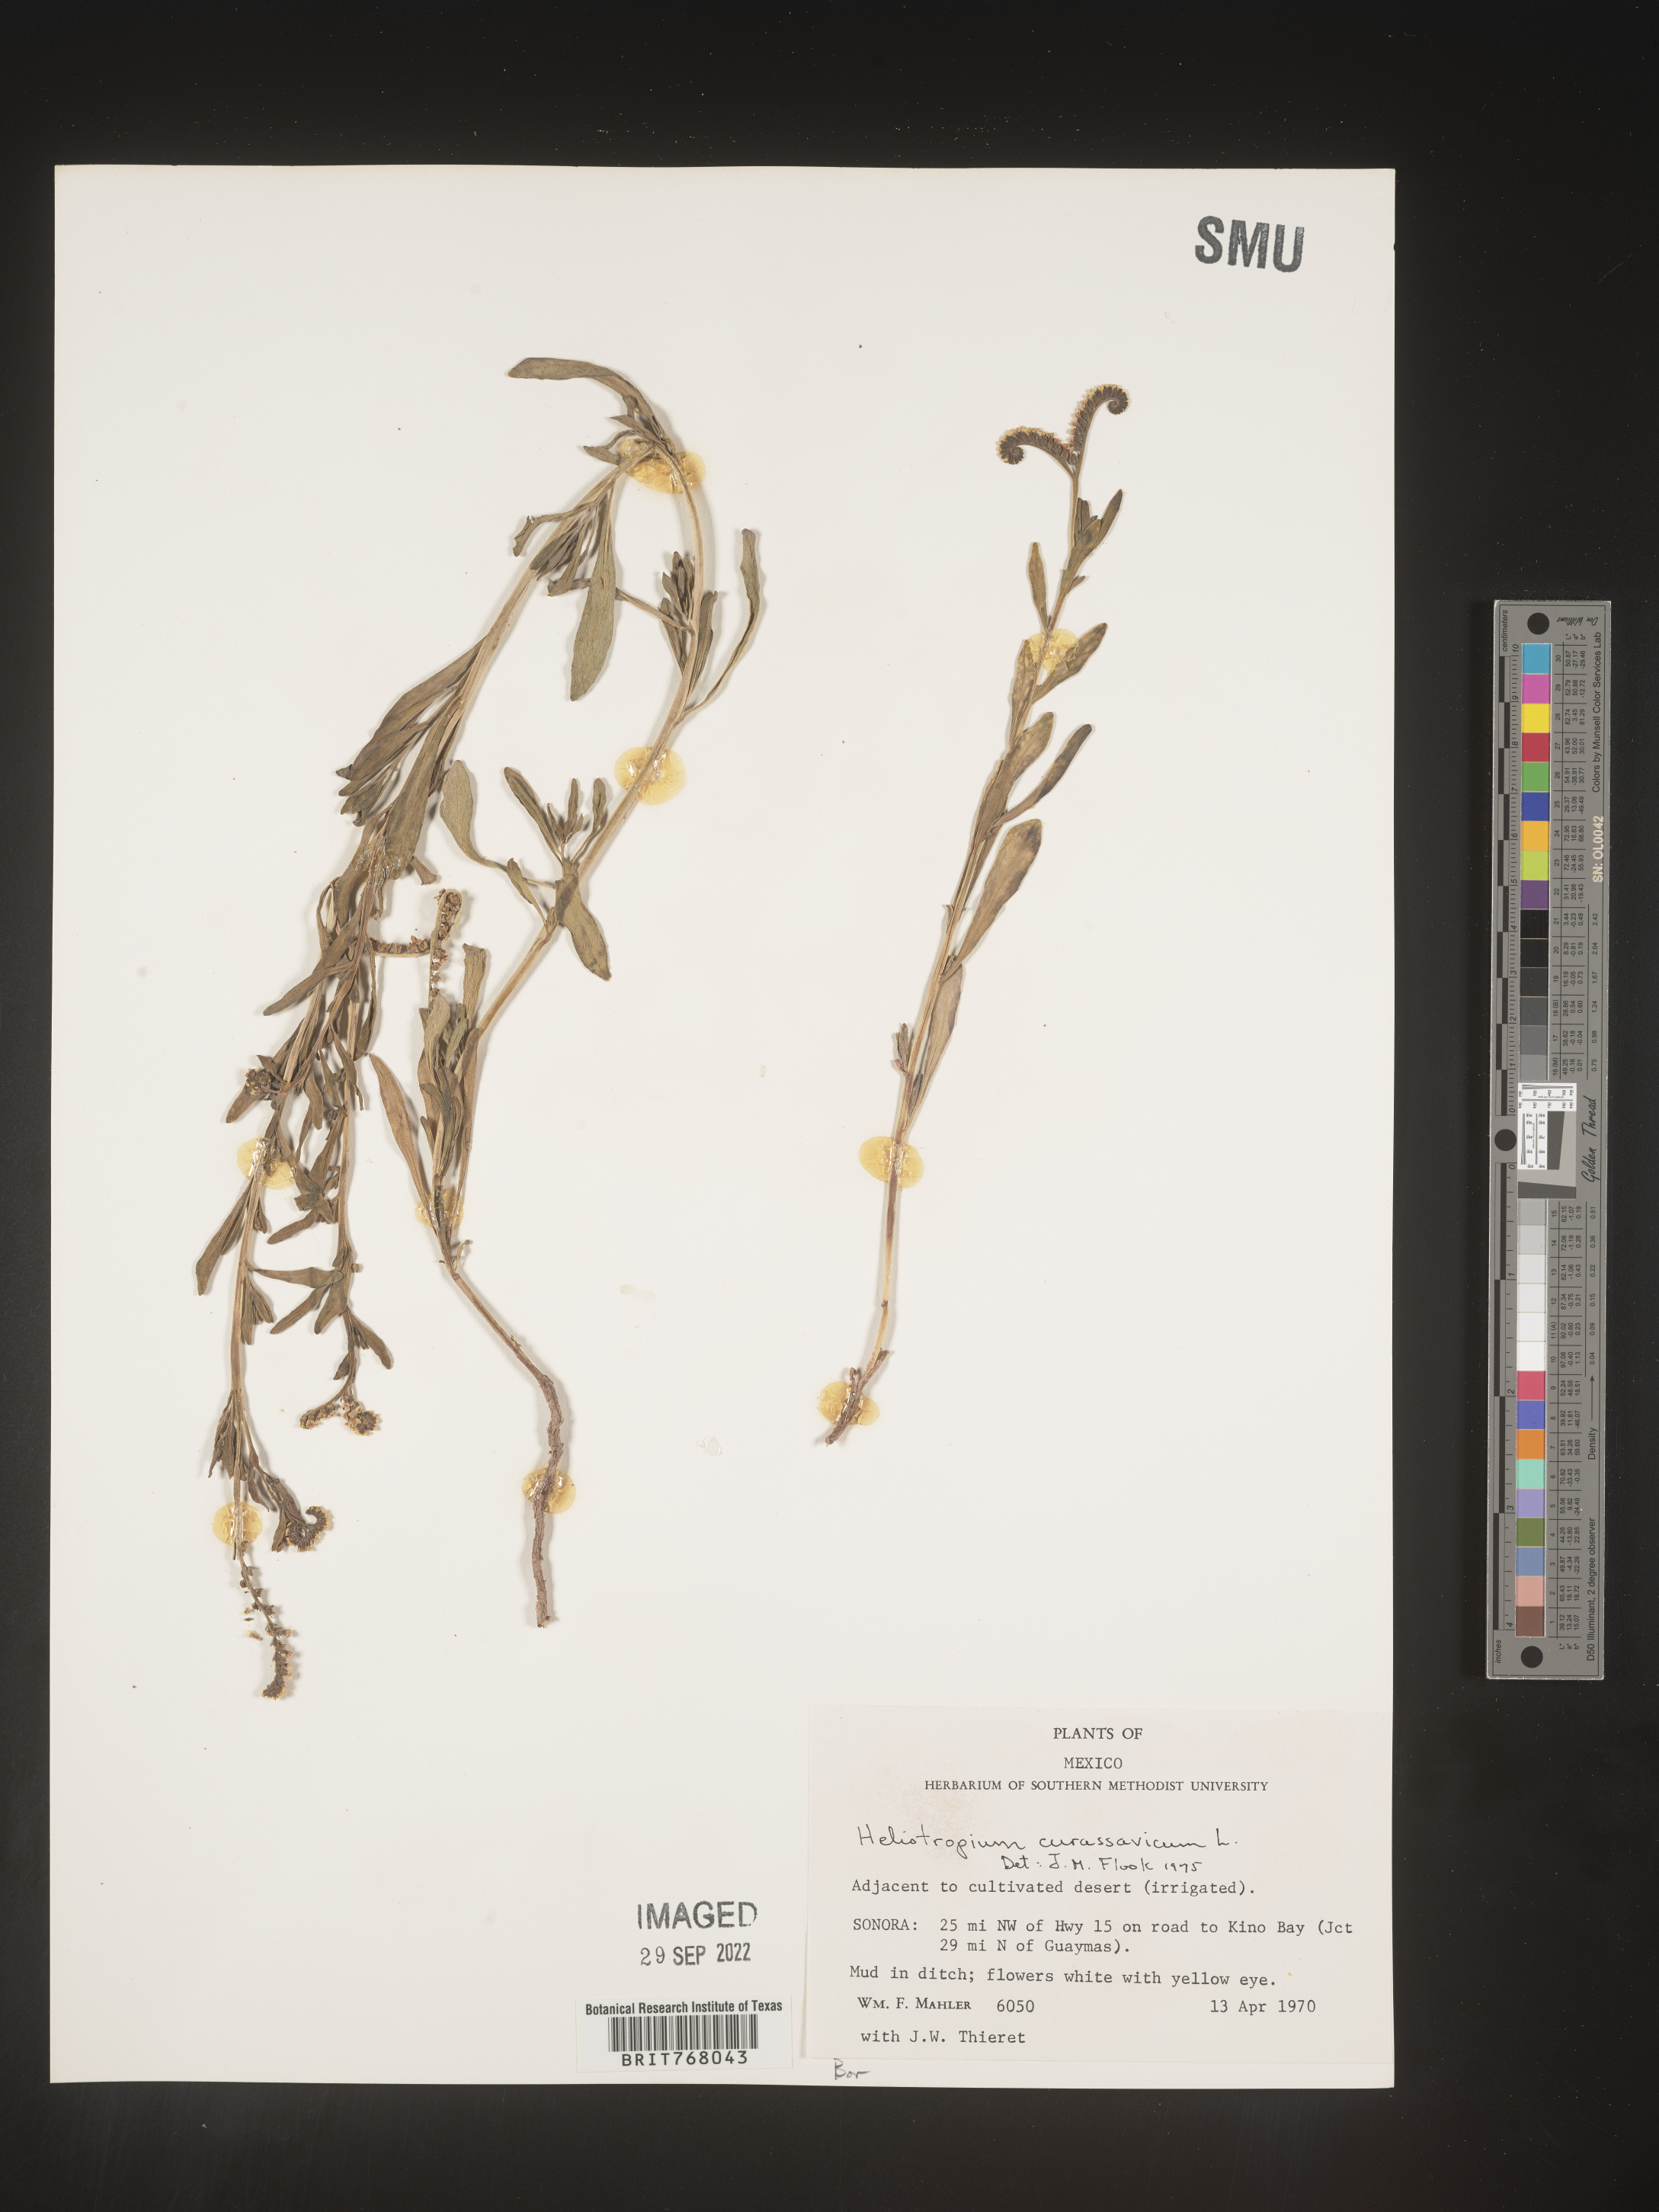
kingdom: Plantae
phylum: Tracheophyta
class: Magnoliopsida
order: Boraginales
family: Heliotropiaceae
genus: Heliotropium
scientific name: Heliotropium curassavicum
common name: Seaside heliotrope
